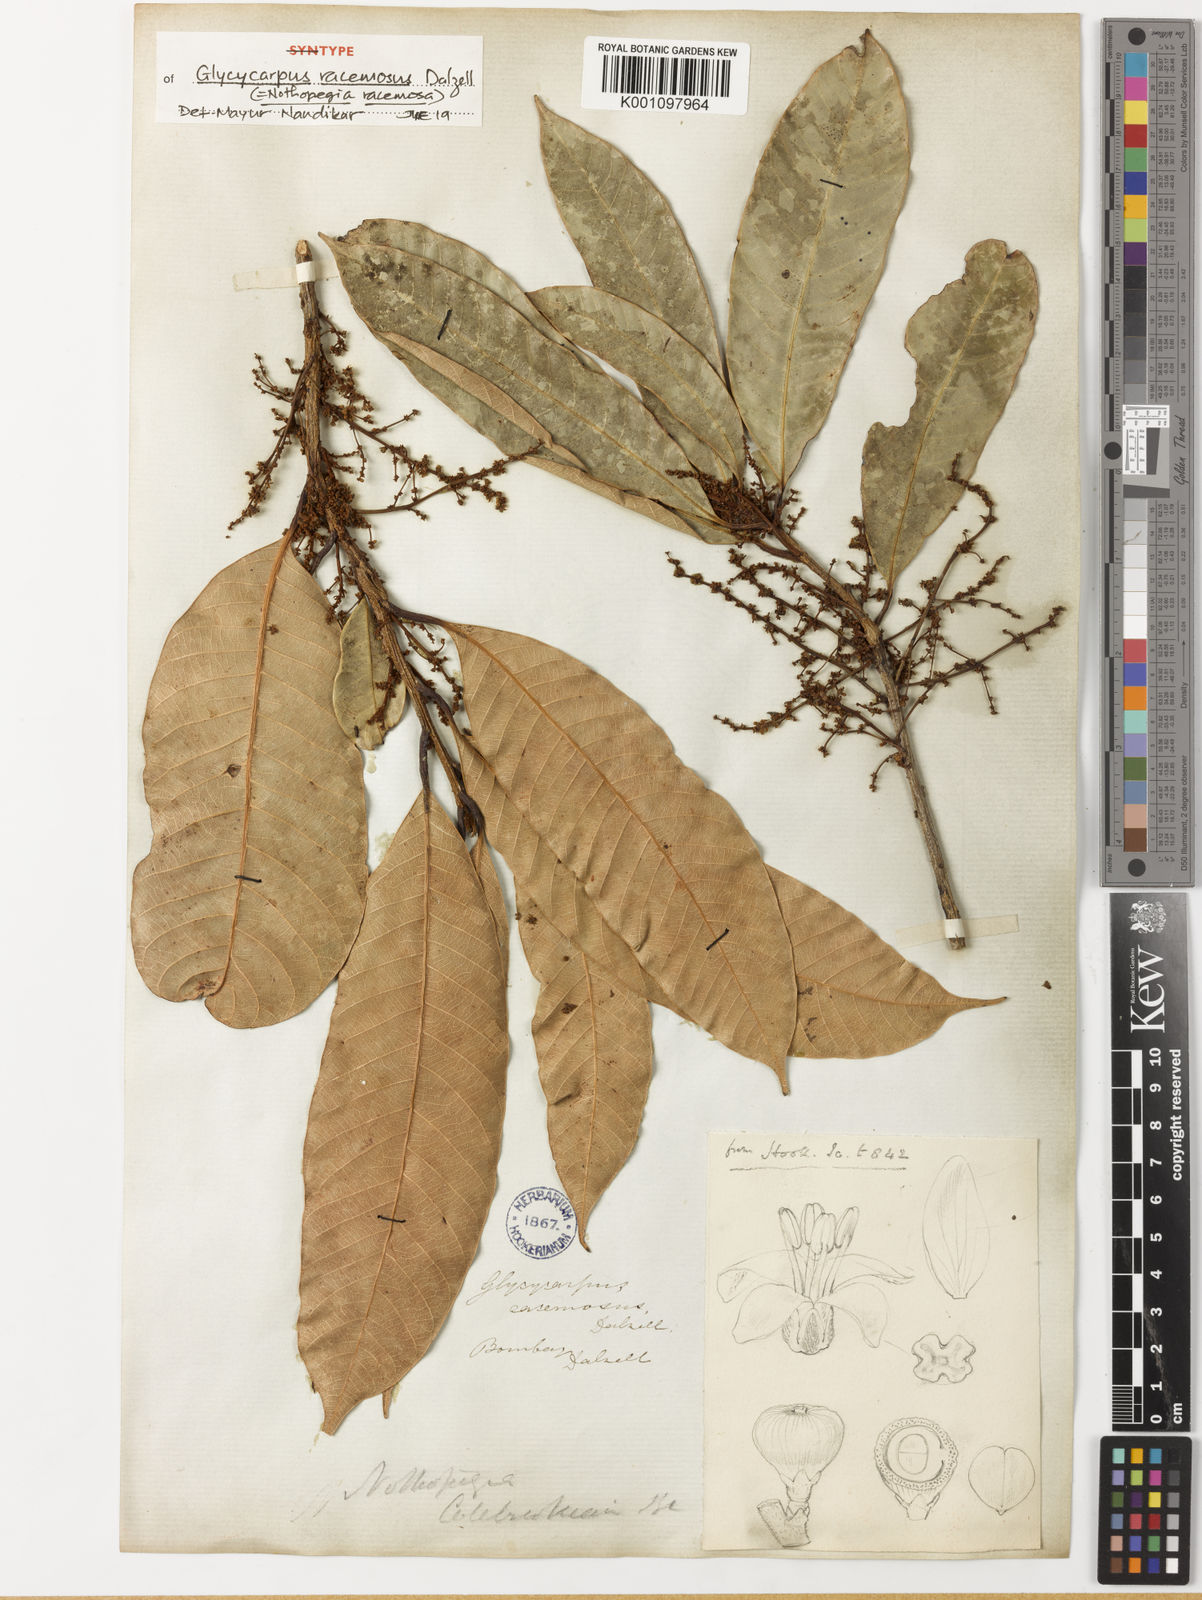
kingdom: Plantae
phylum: Tracheophyta
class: Magnoliopsida
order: Sapindales
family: Anacardiaceae
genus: Nothopegia
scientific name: Nothopegia castaneifolia
